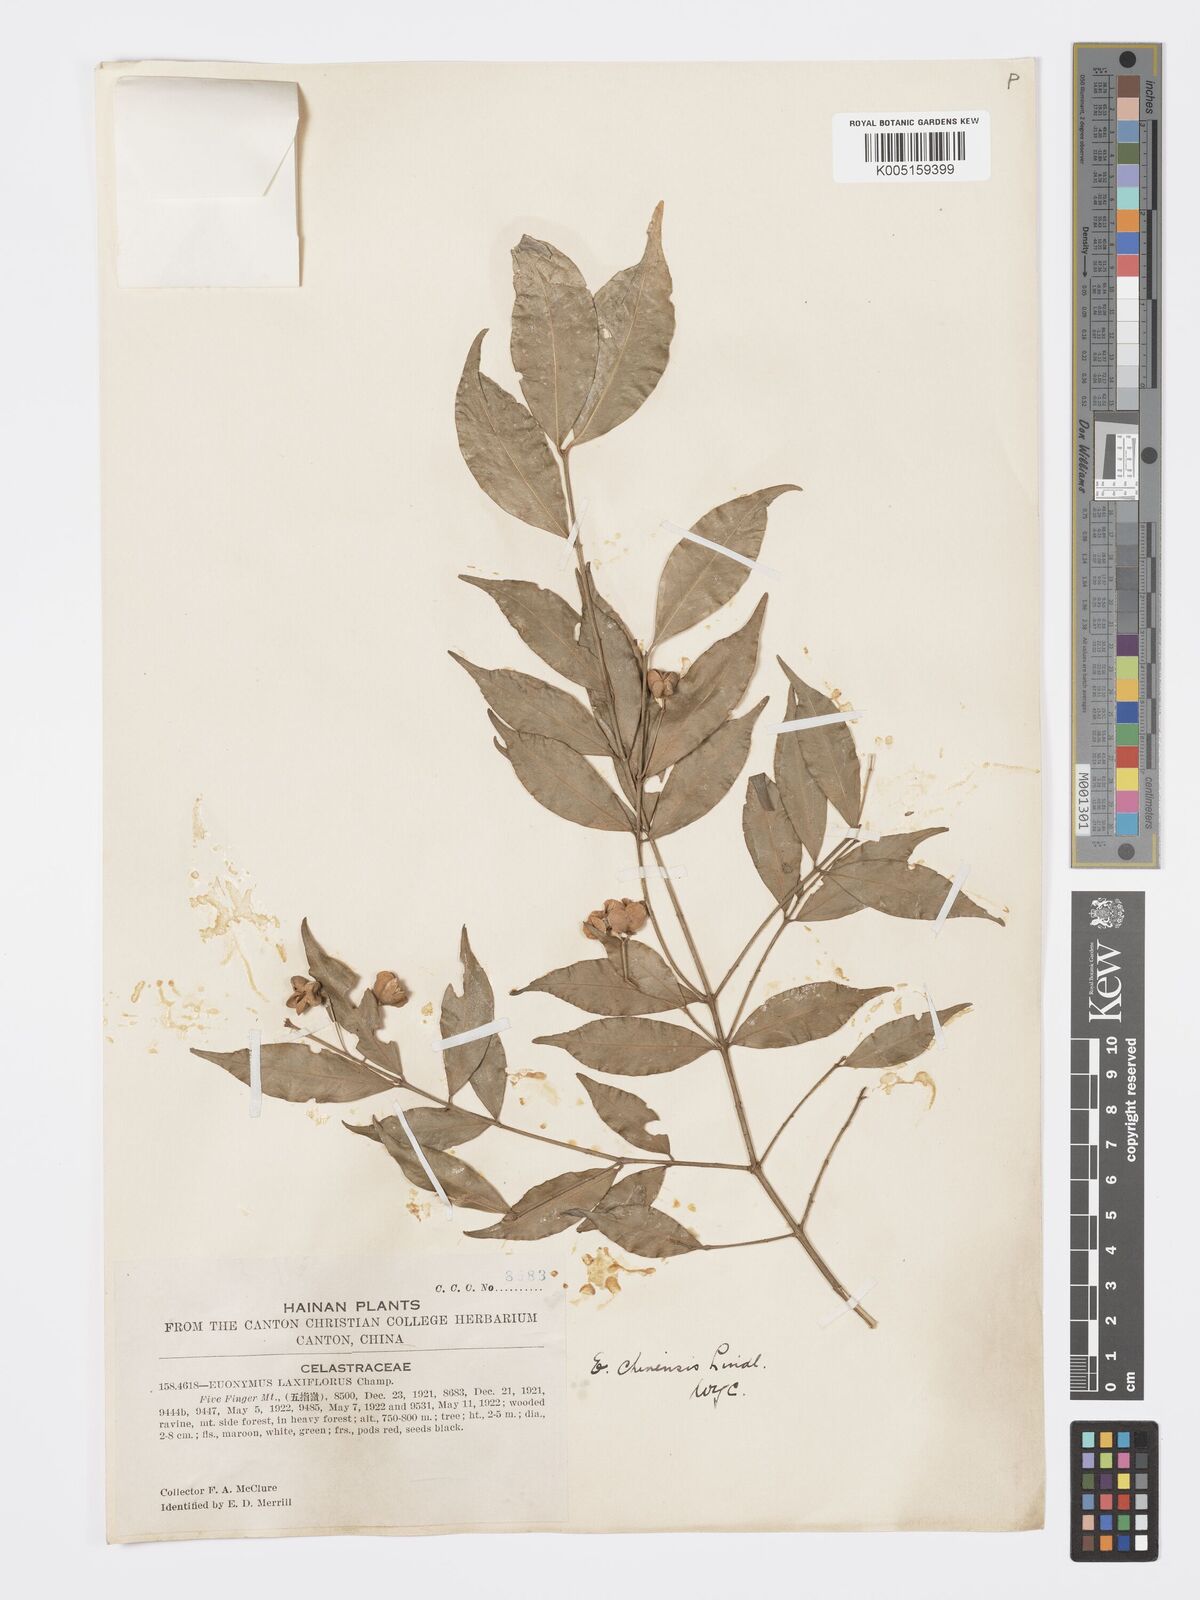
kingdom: Plantae
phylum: Tracheophyta
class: Magnoliopsida
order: Celastrales
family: Celastraceae
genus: Euonymus
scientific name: Euonymus nitidus
